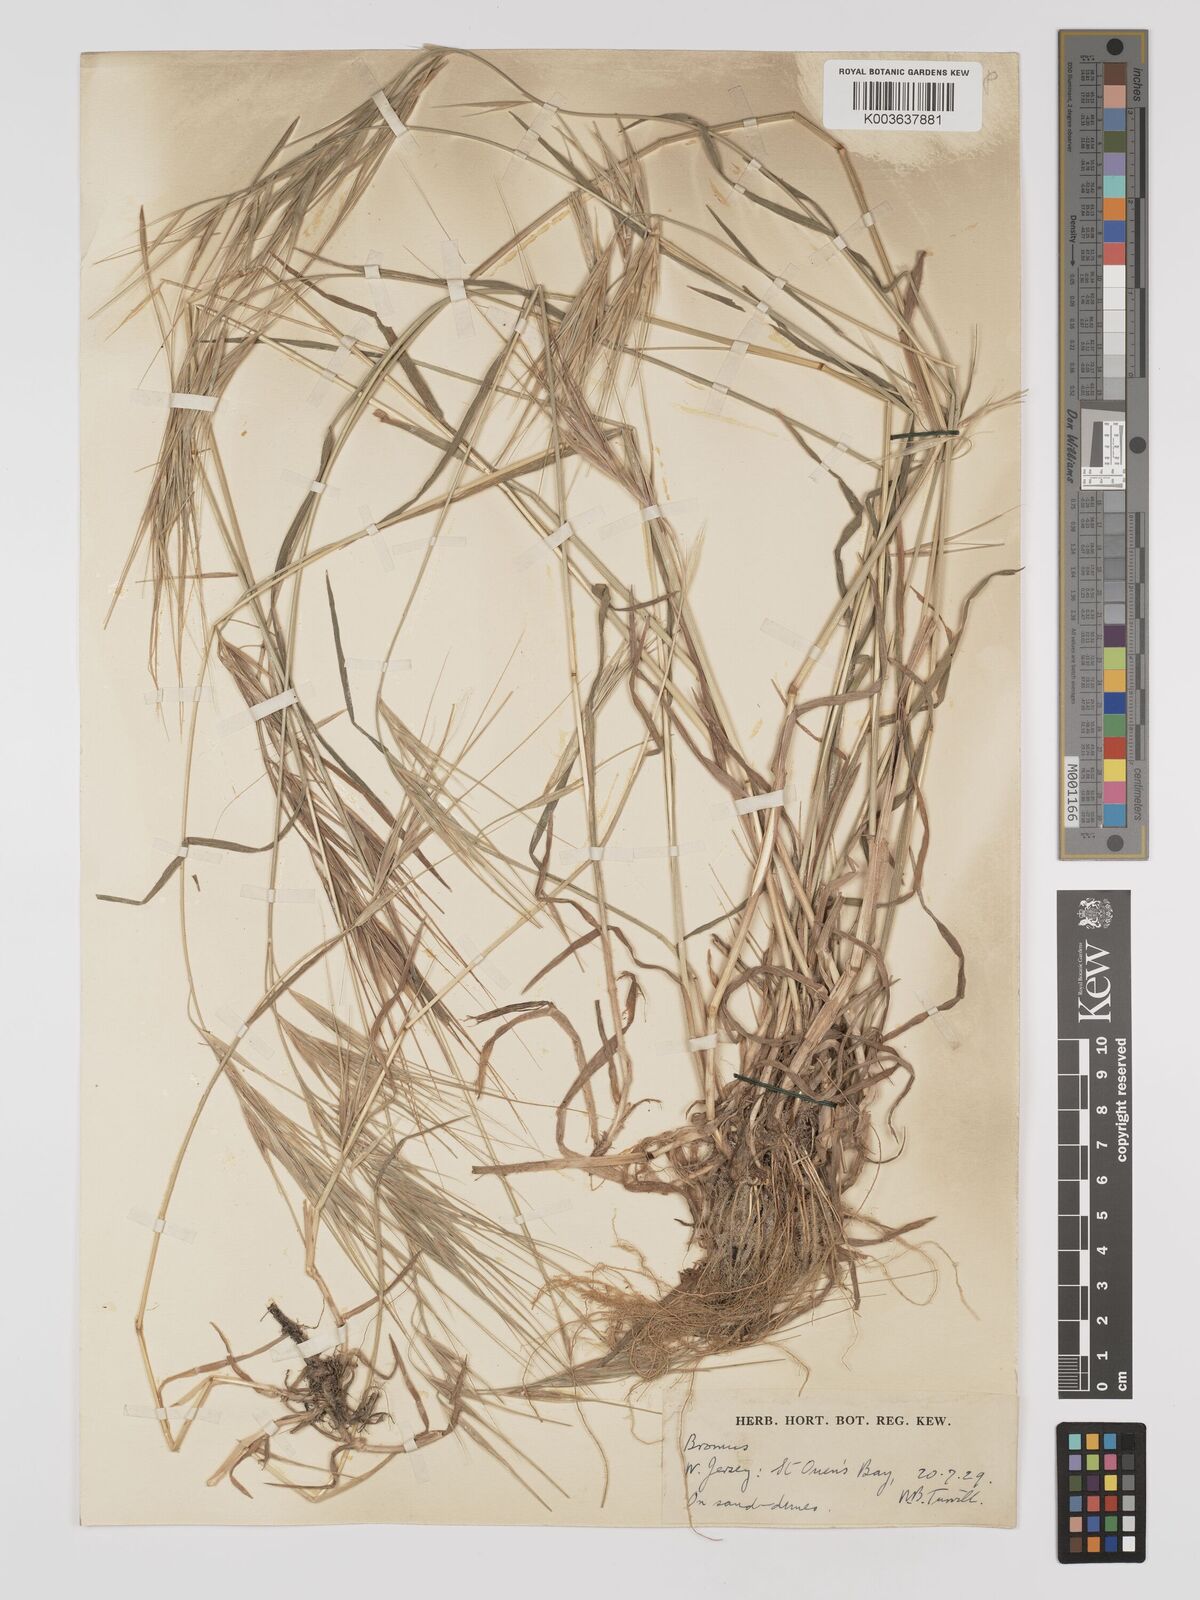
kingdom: Plantae
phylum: Tracheophyta
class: Liliopsida
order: Poales
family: Poaceae
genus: Bromus
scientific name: Bromus
